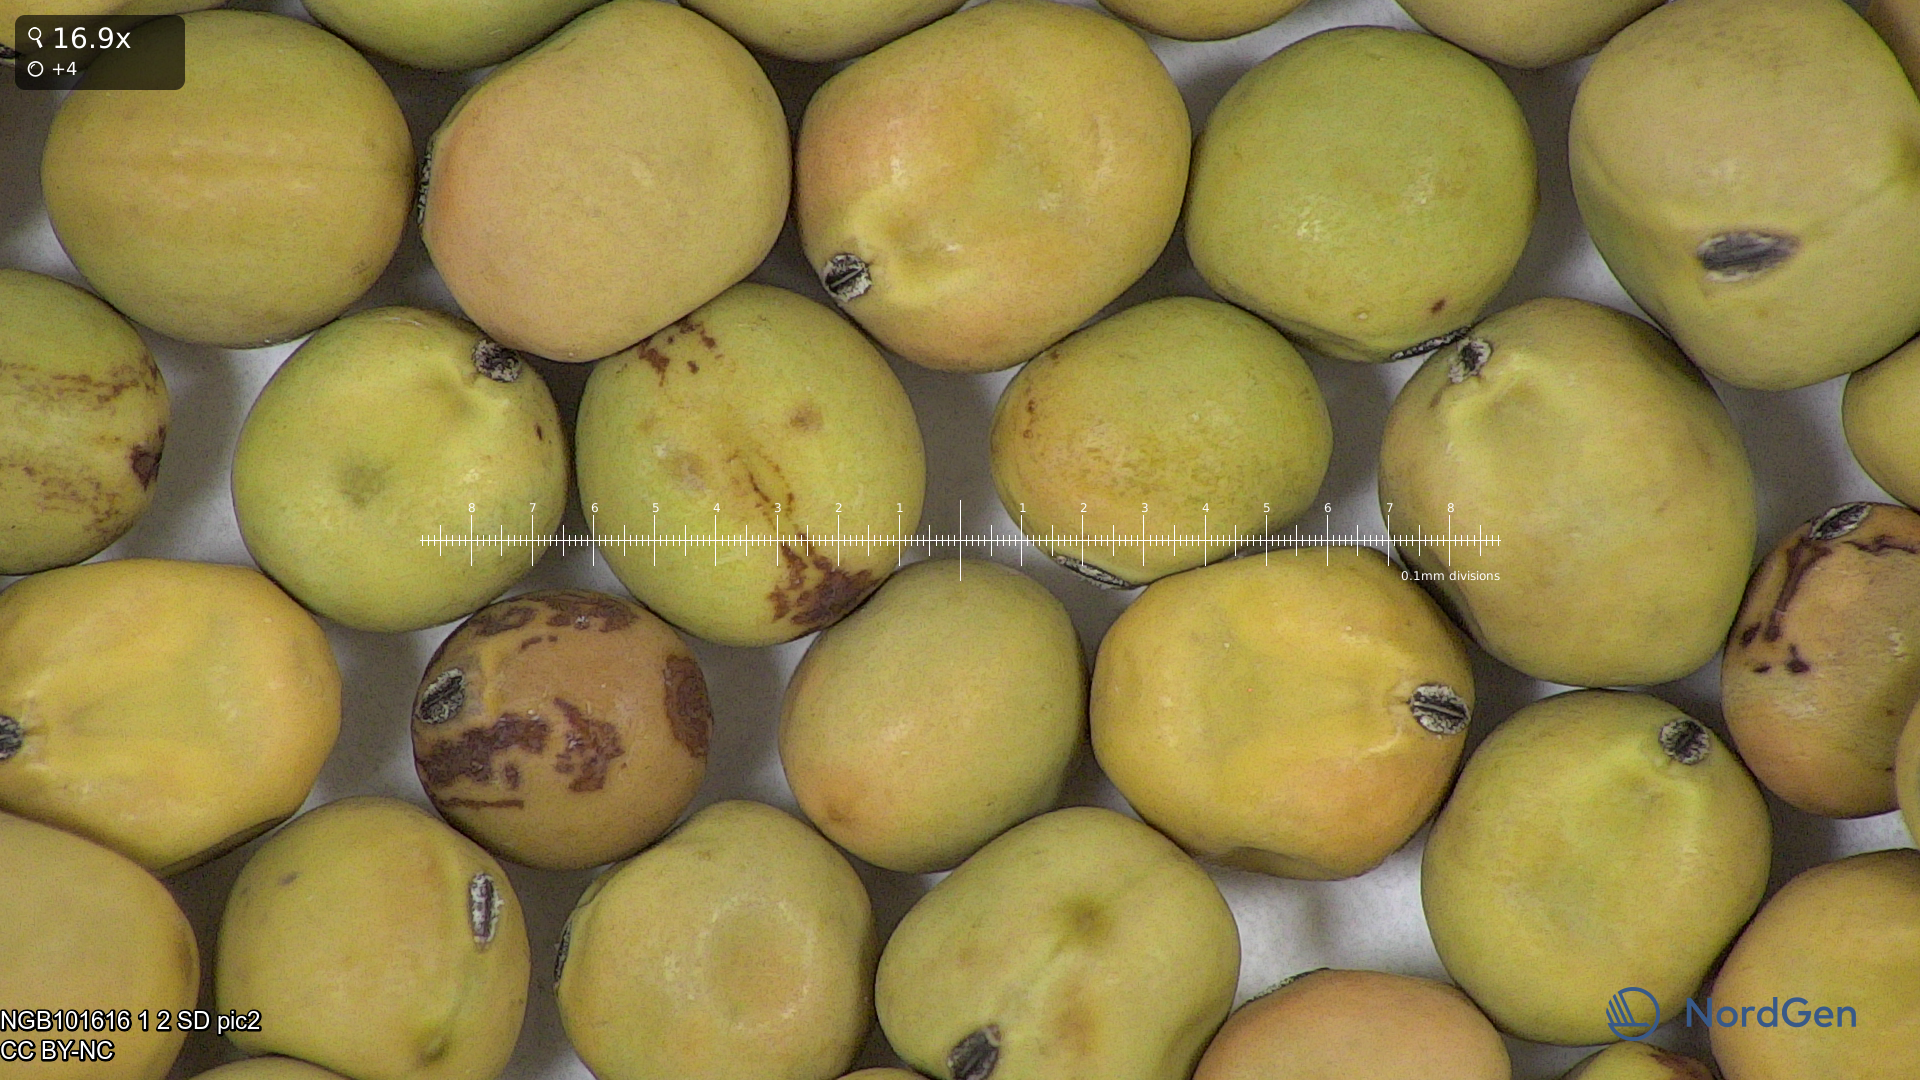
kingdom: Plantae
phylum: Tracheophyta
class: Magnoliopsida
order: Fabales
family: Fabaceae
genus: Lathyrus
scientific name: Lathyrus oleraceus
